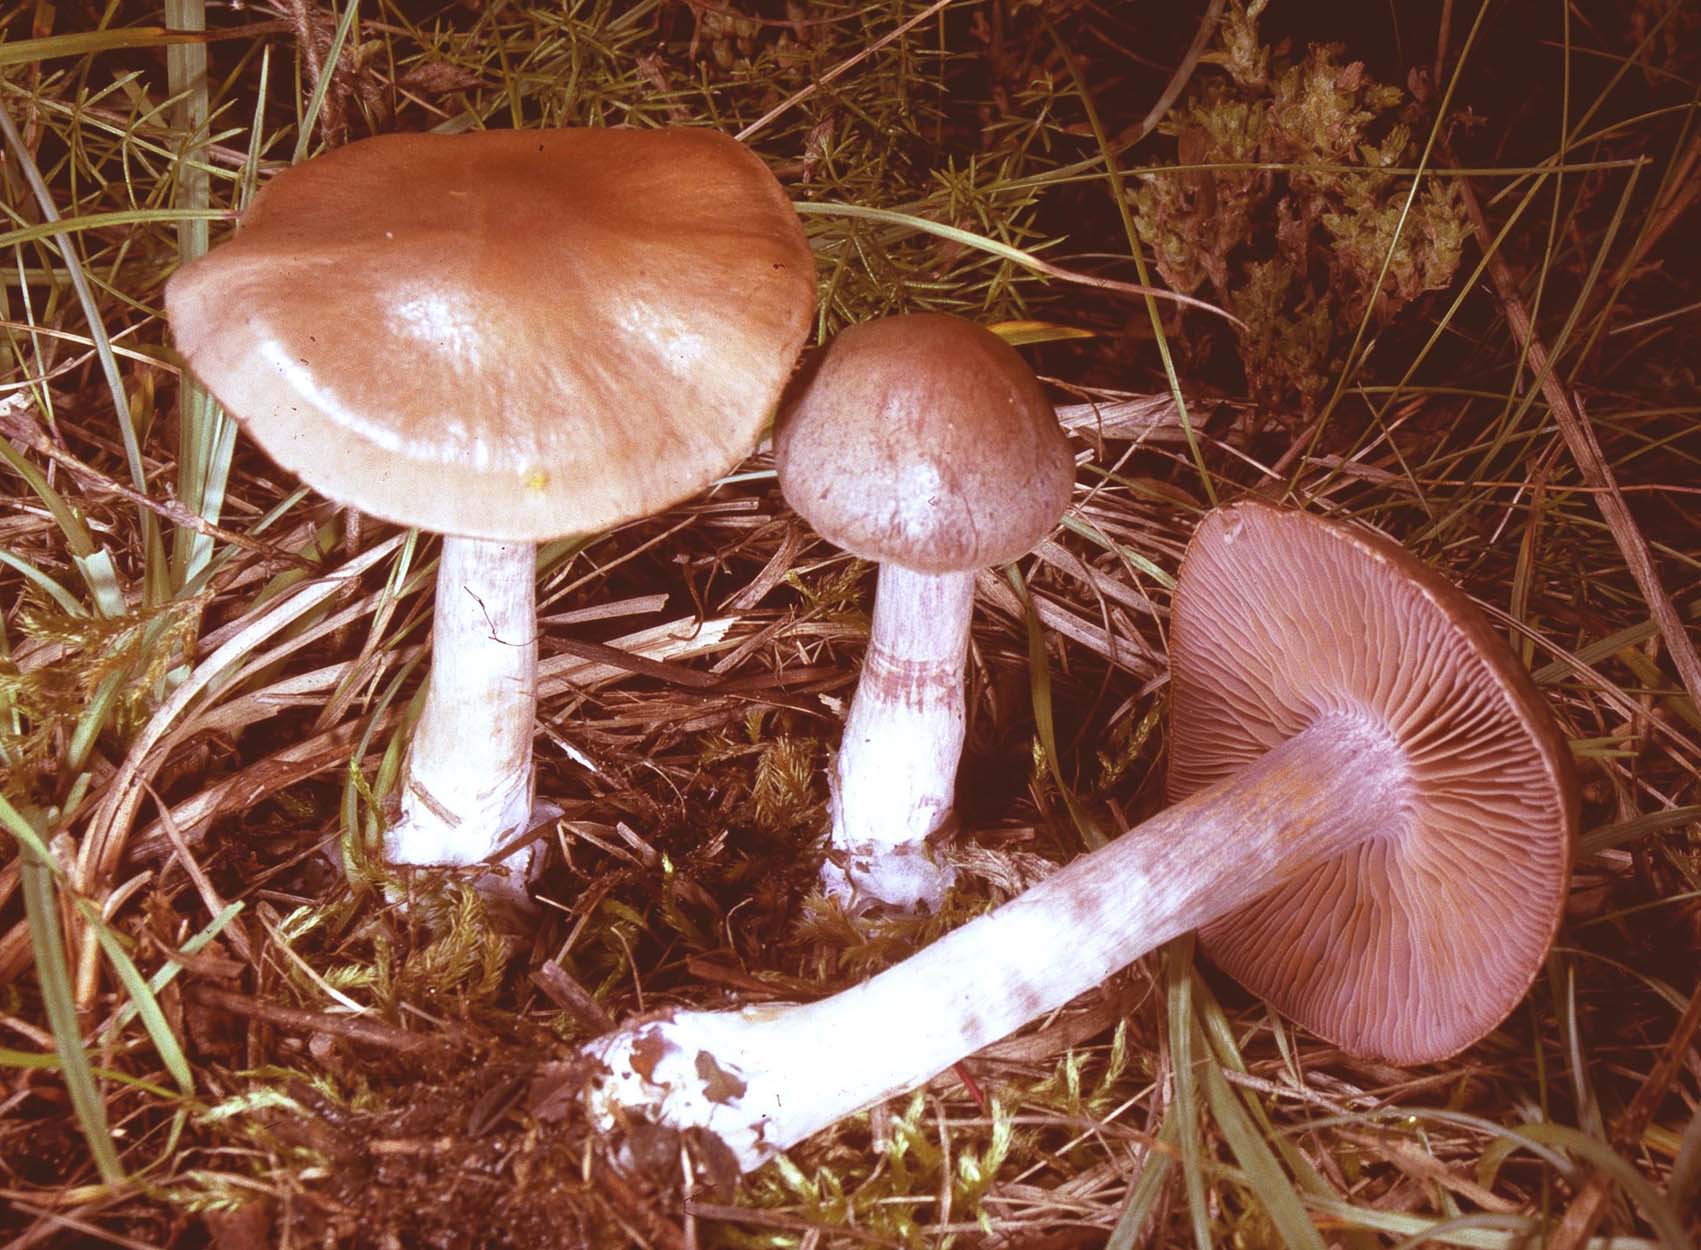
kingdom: Fungi
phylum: Basidiomycota
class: Agaricomycetes
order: Agaricales
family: Cortinariaceae
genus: Cortinarius
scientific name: Cortinarius
